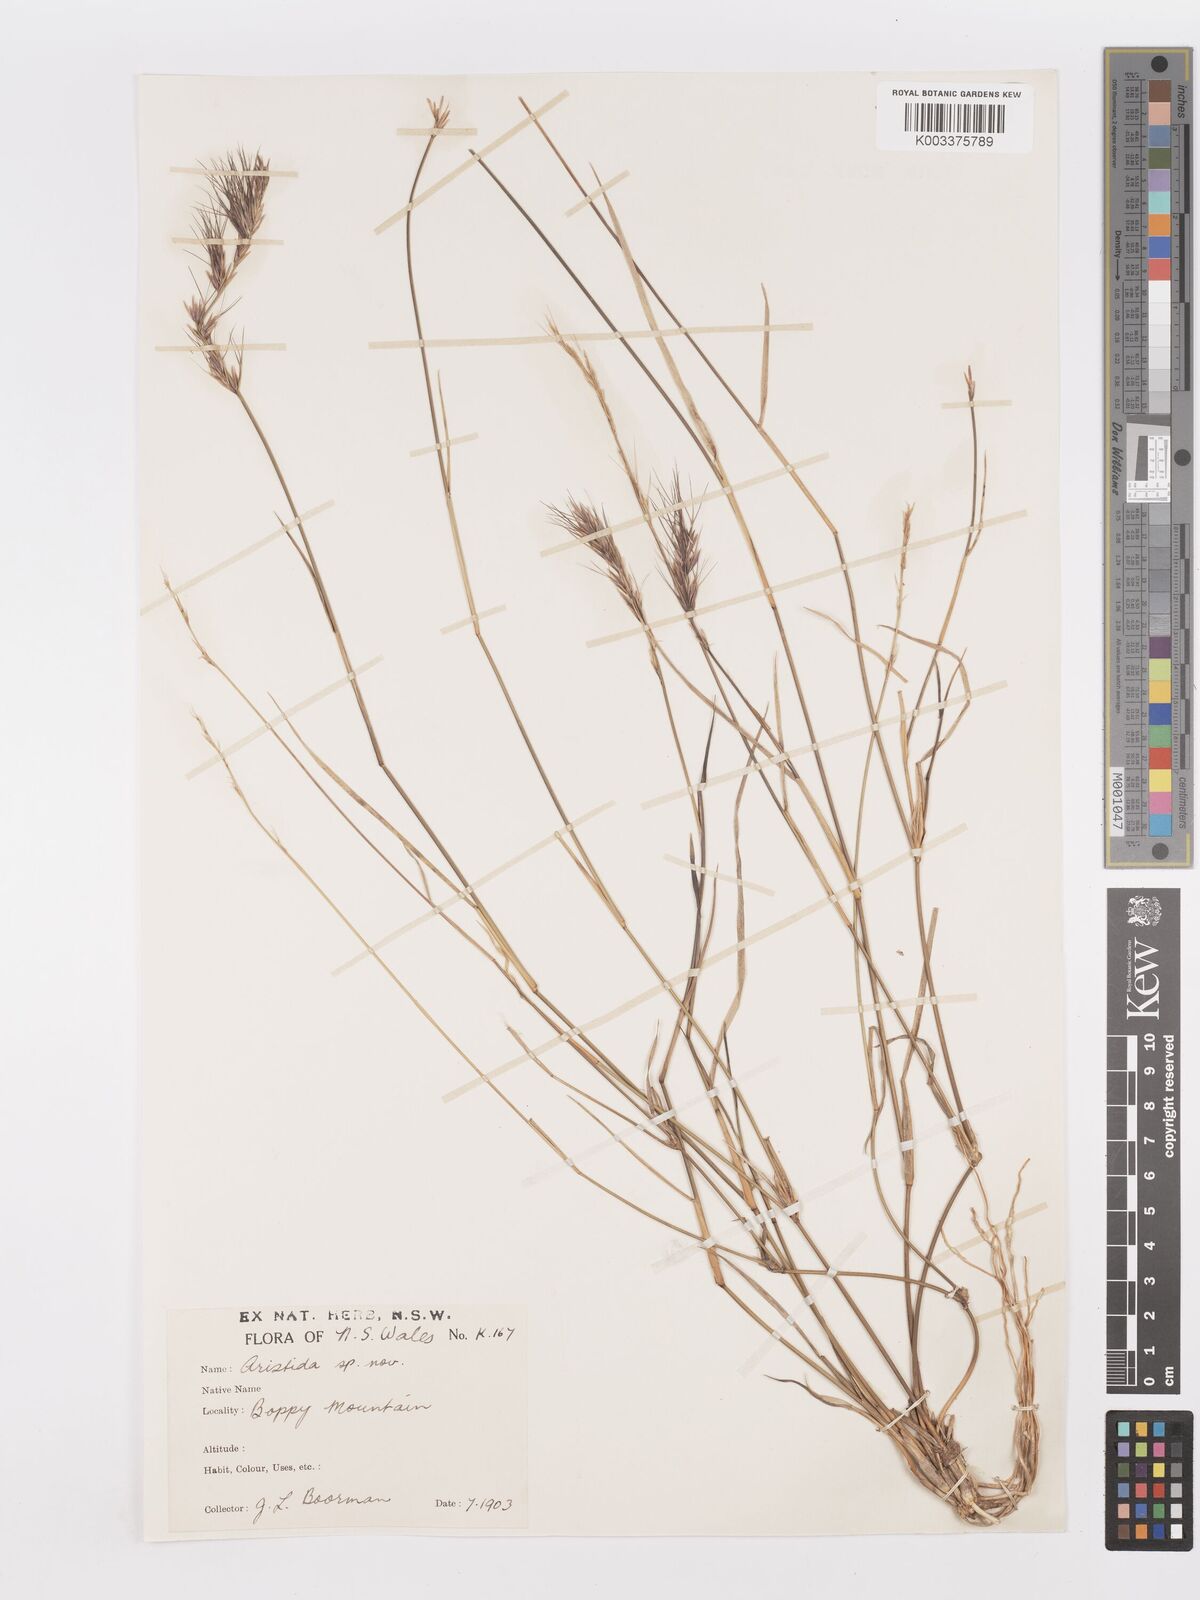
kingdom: Plantae
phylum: Tracheophyta
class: Liliopsida
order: Poales
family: Poaceae
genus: Aristida
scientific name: Aristida
